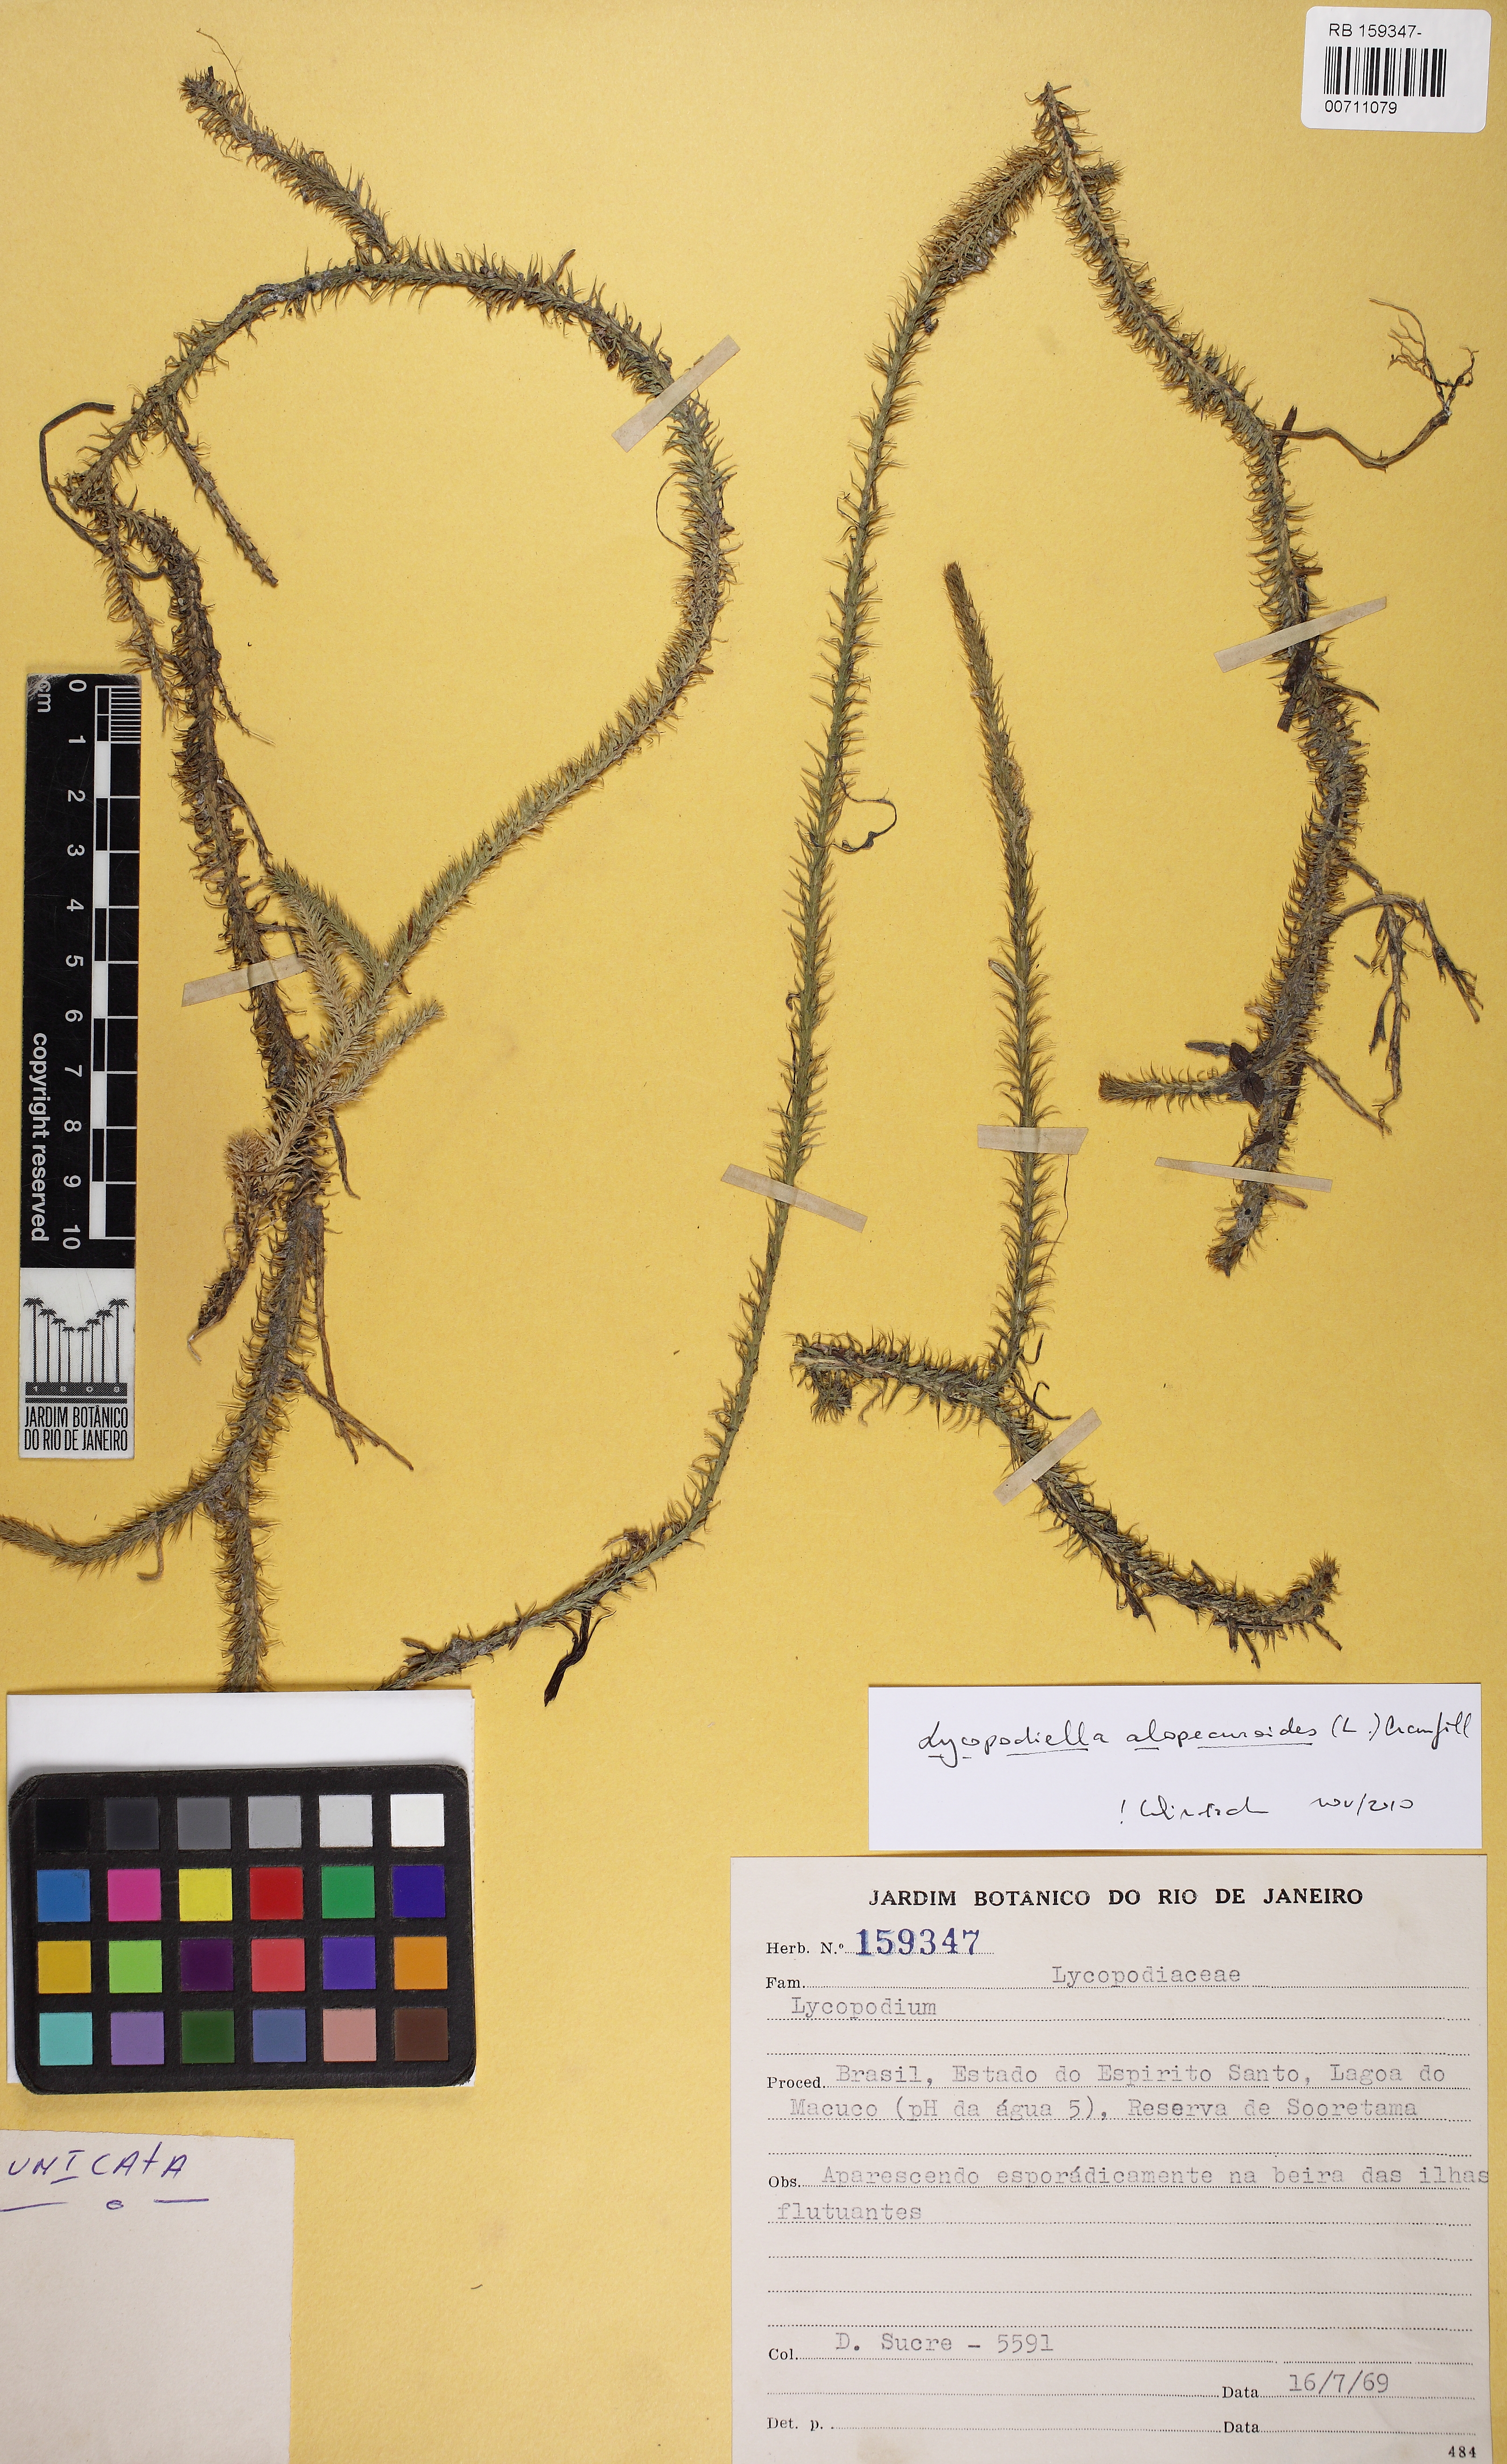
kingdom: Plantae
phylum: Tracheophyta
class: Lycopodiopsida
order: Lycopodiales
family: Lycopodiaceae
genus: Lycopodiella
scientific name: Lycopodiella alopecuroides
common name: Foxtail clubmoss
